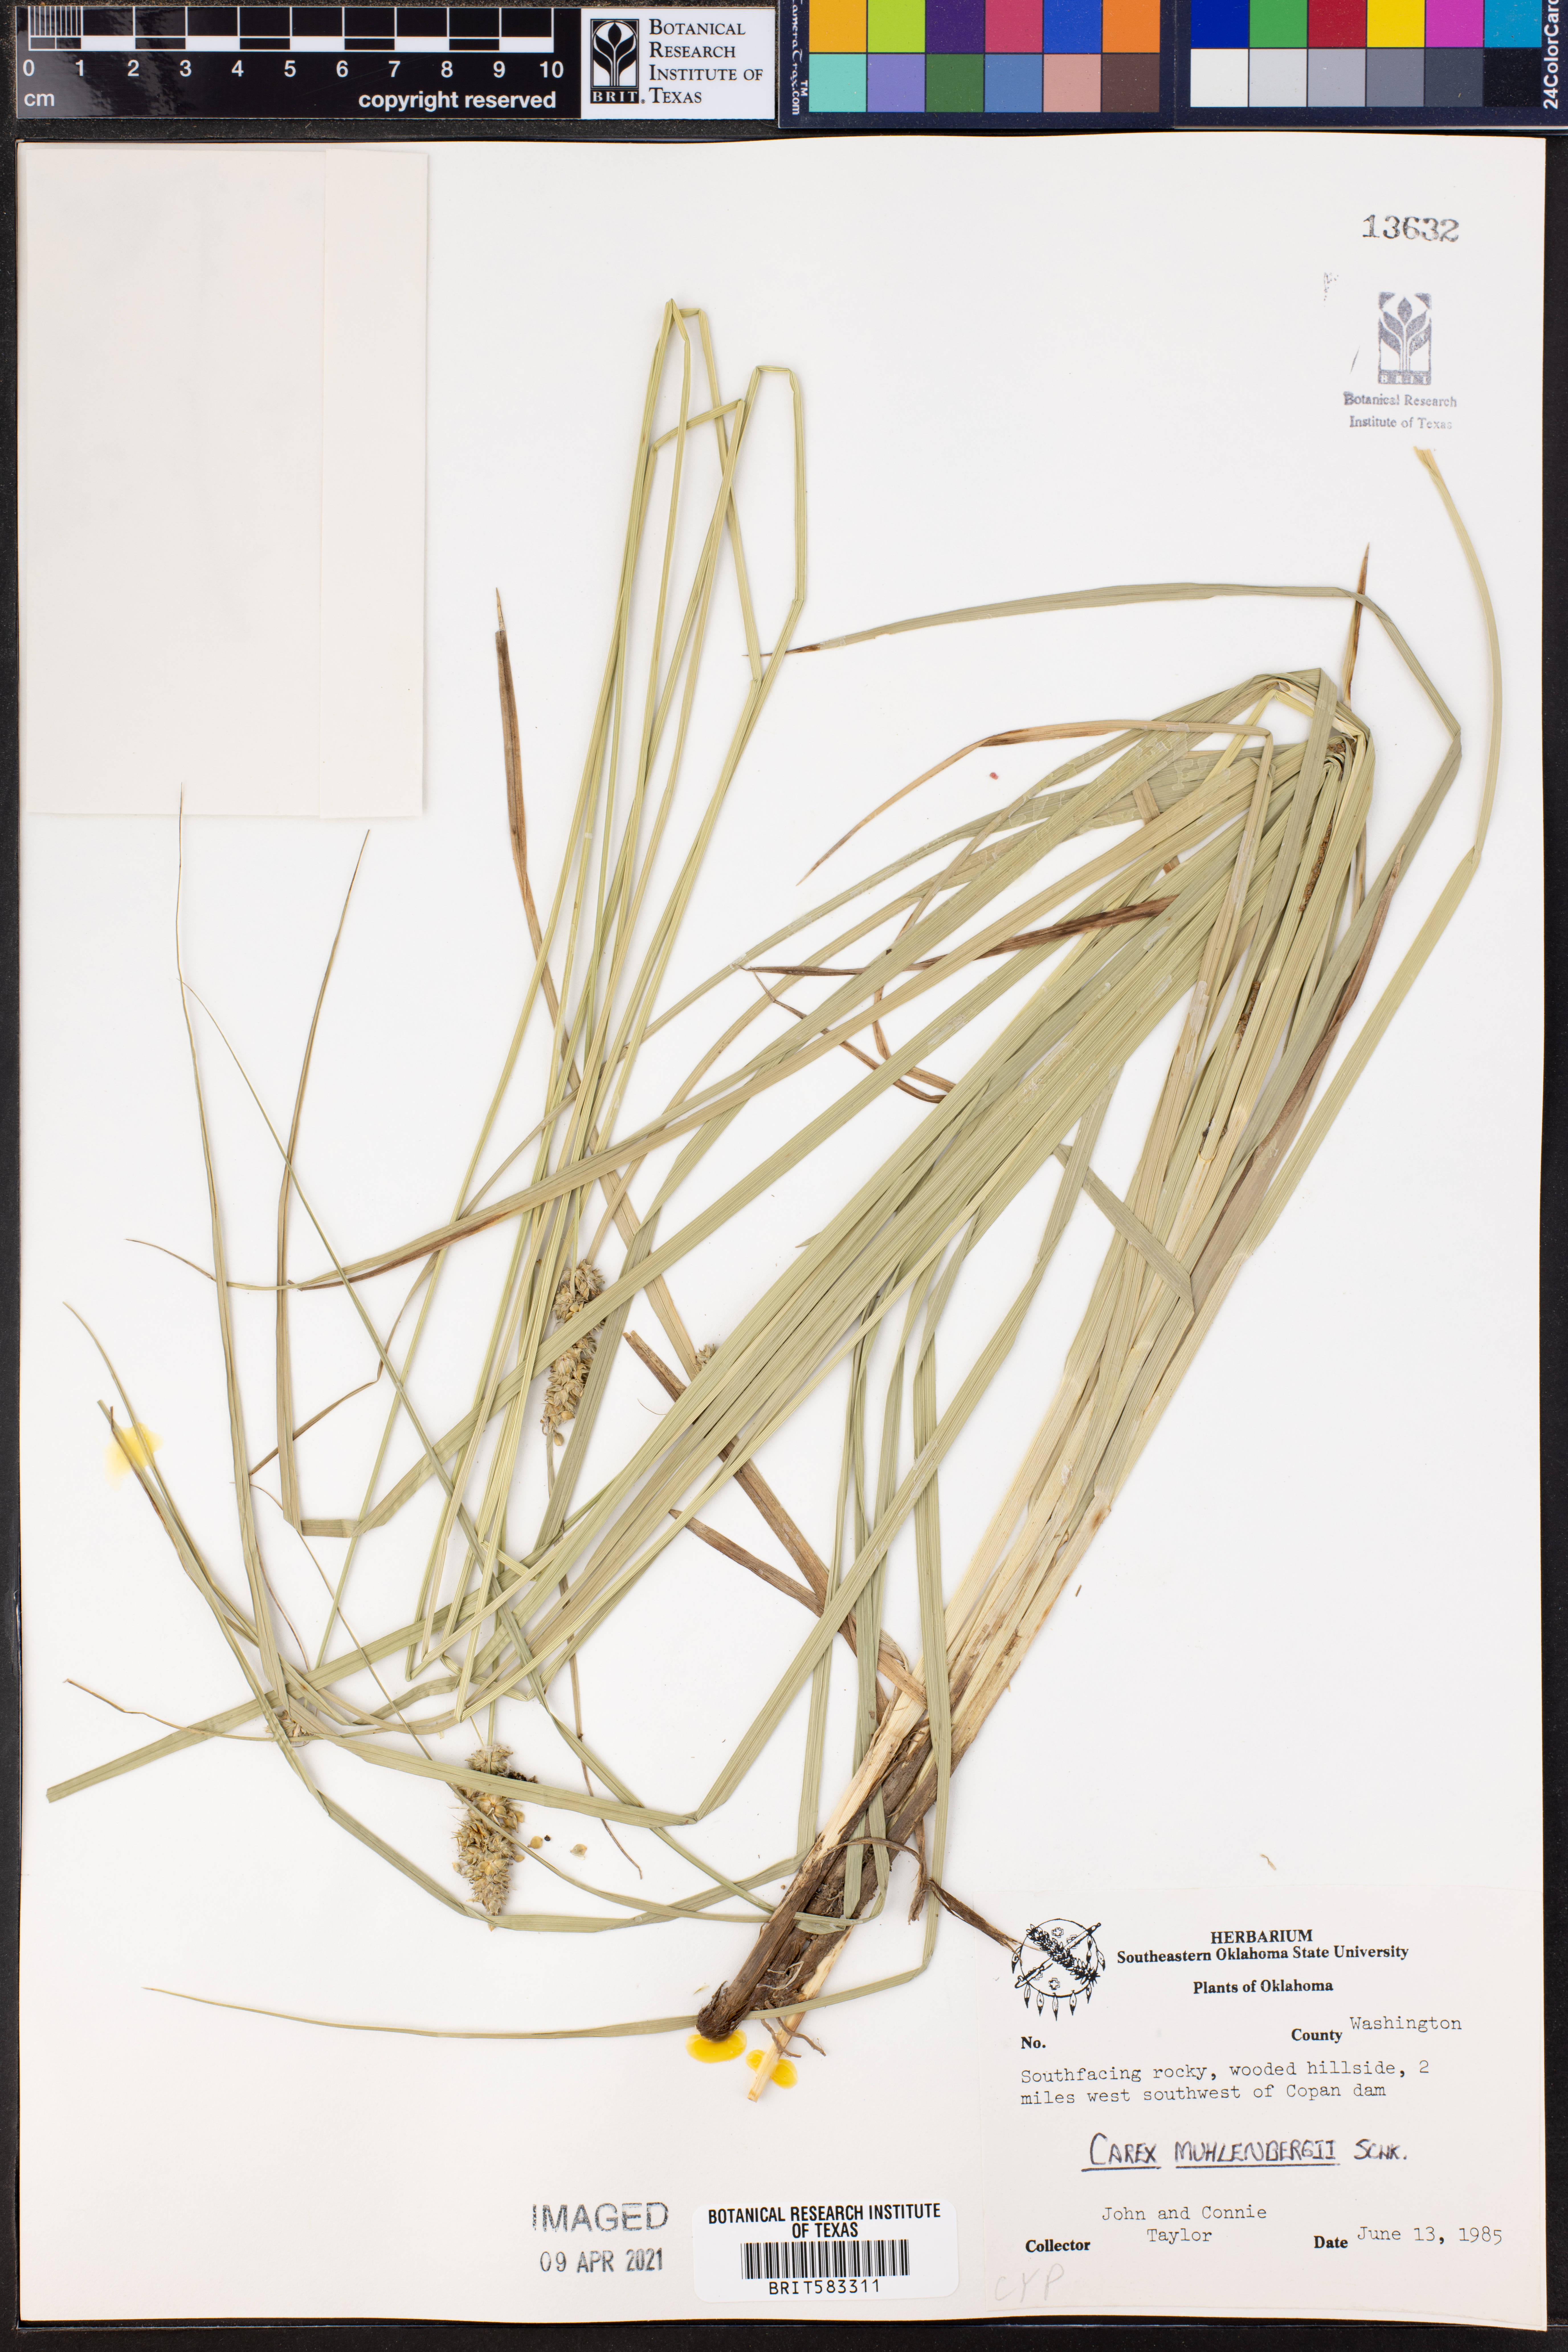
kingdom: Plantae
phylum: Tracheophyta
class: Liliopsida
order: Poales
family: Cyperaceae
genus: Carex
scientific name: Carex vulpinoidea
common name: American fox-sedge
